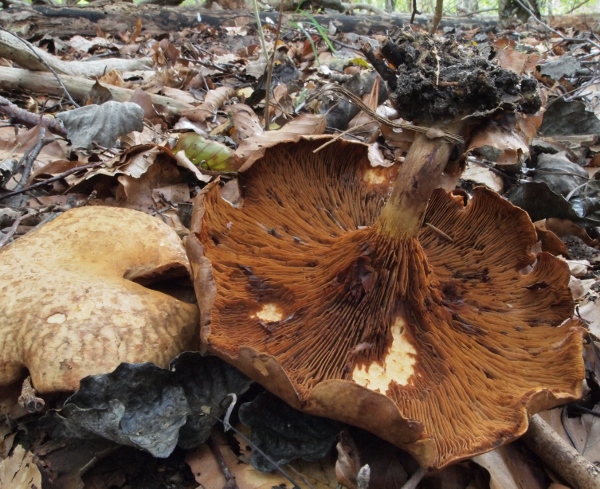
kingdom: Fungi
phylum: Basidiomycota
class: Agaricomycetes
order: Boletales
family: Paxillaceae
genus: Paxillus
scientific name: Paxillus rubicundulus
